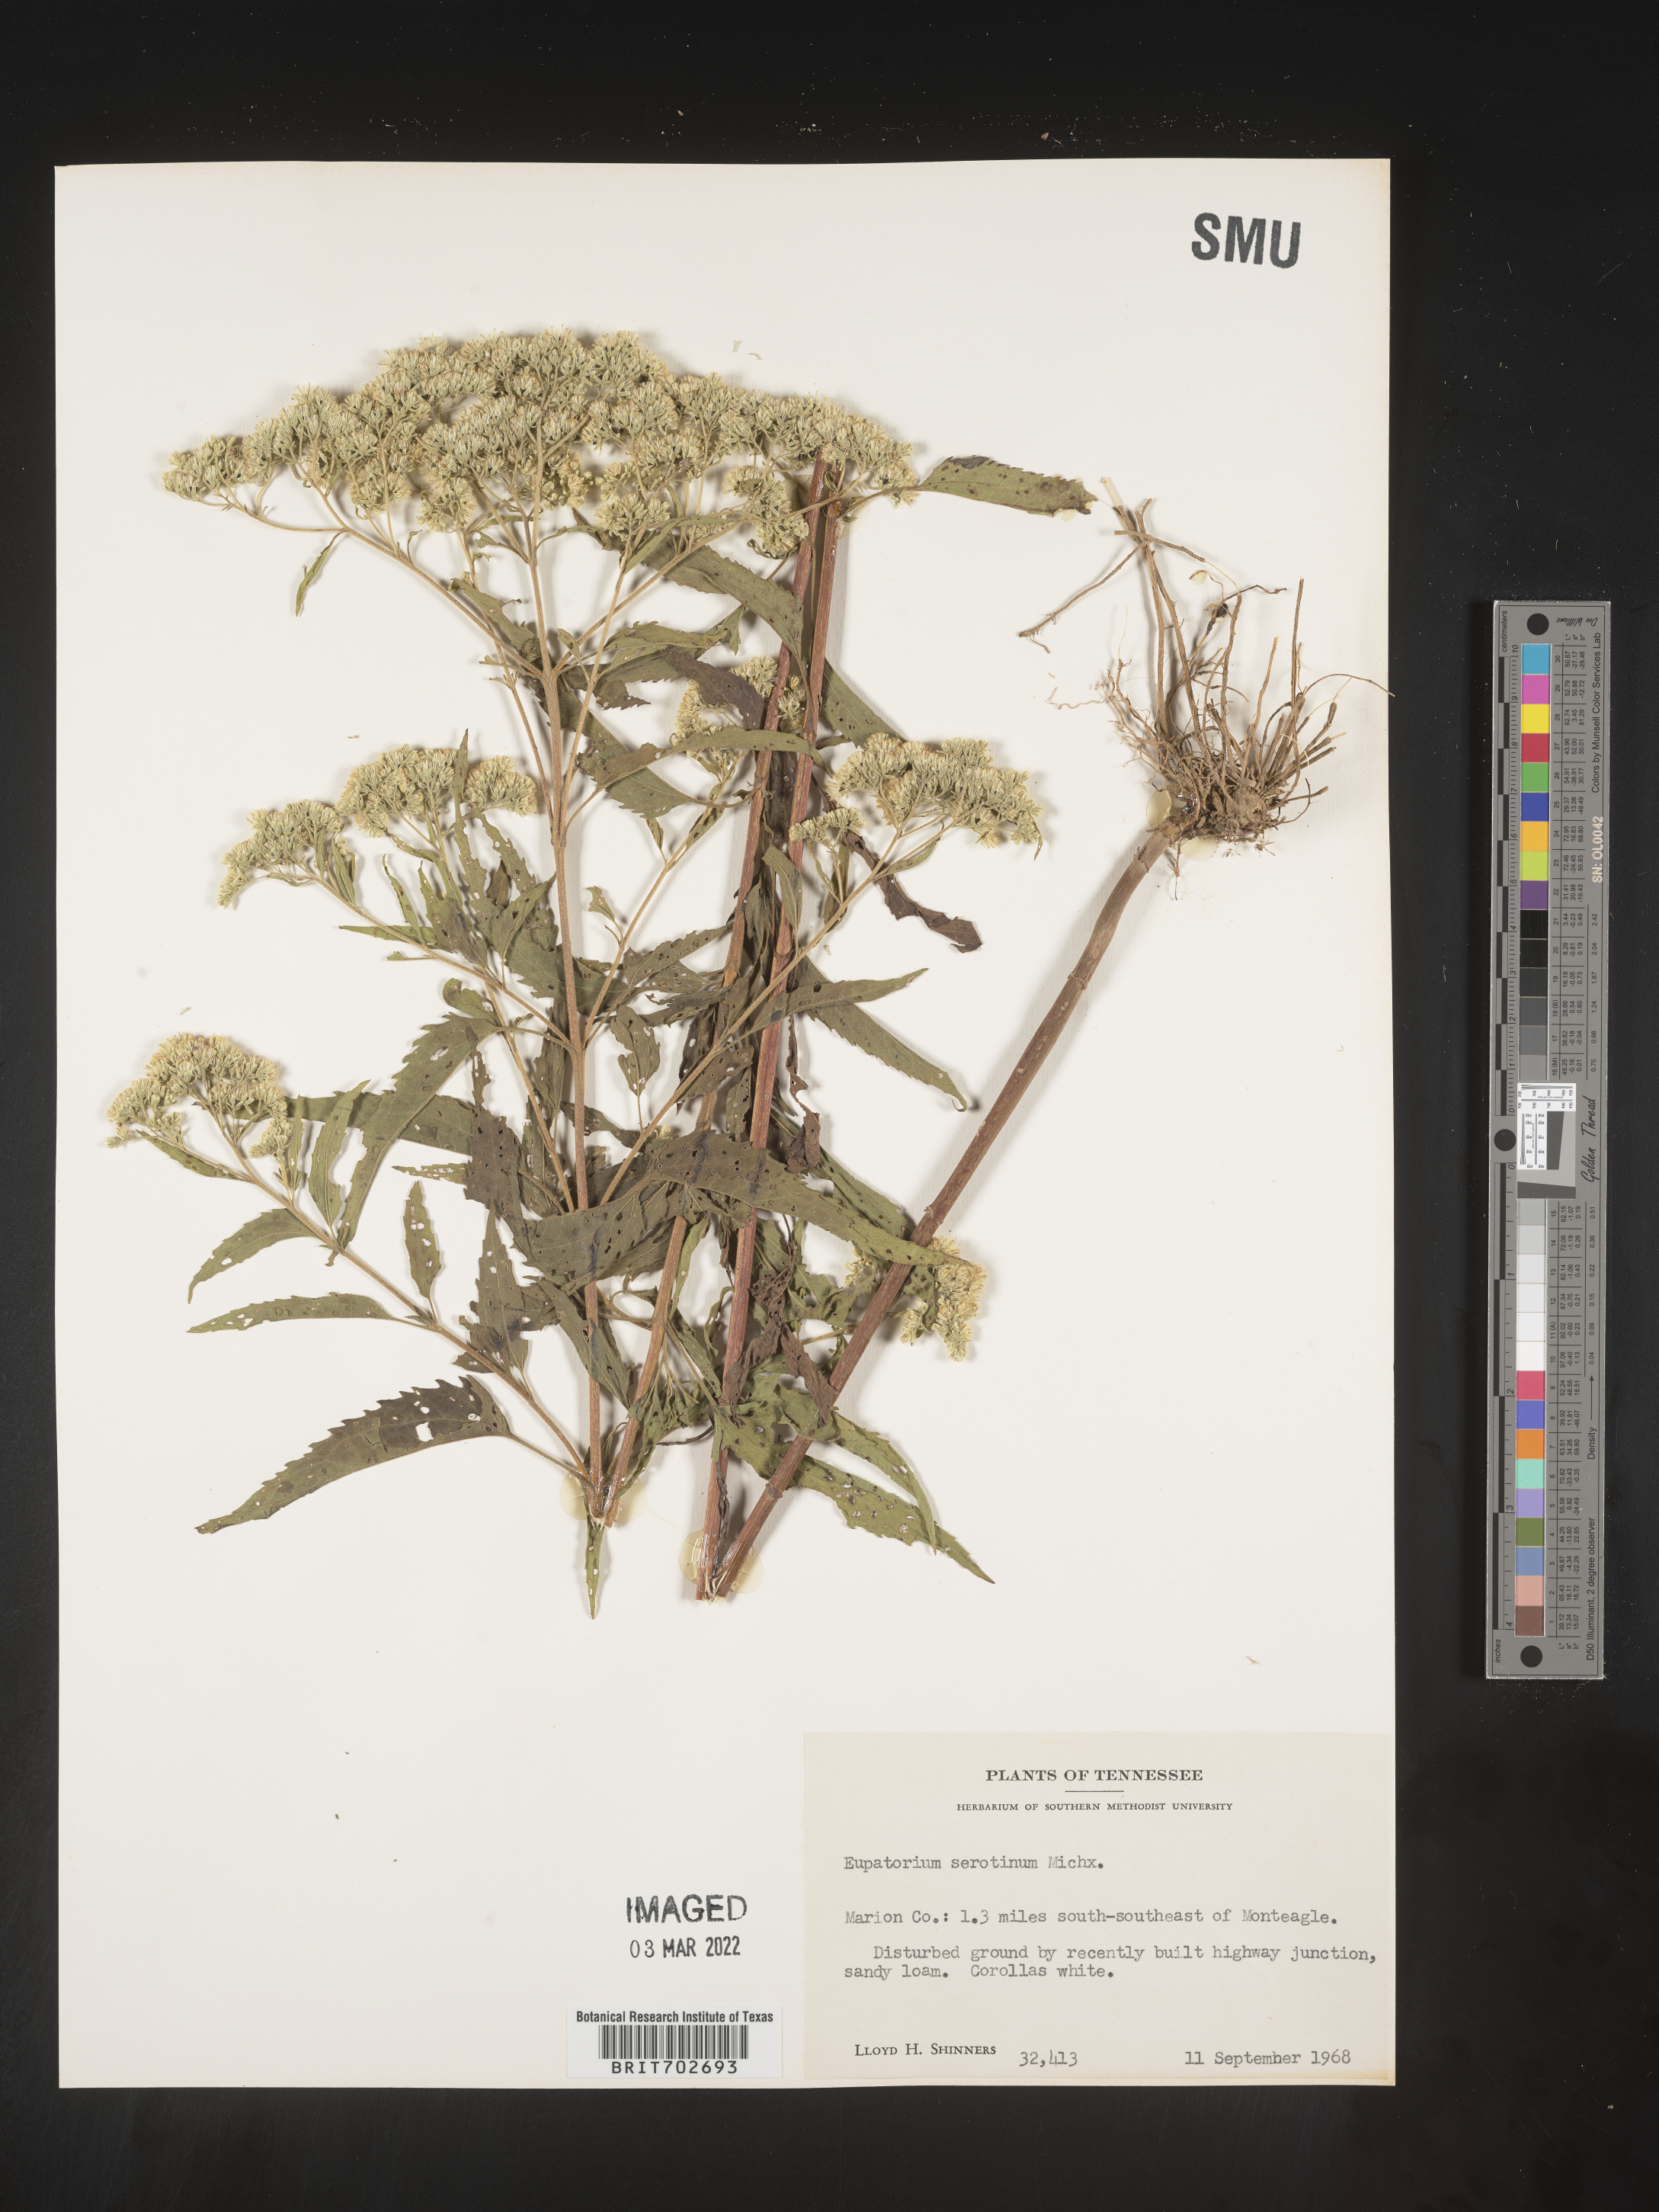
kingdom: Plantae
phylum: Tracheophyta
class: Magnoliopsida
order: Asterales
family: Asteraceae
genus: Eupatorium
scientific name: Eupatorium serotinum
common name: Late boneset
